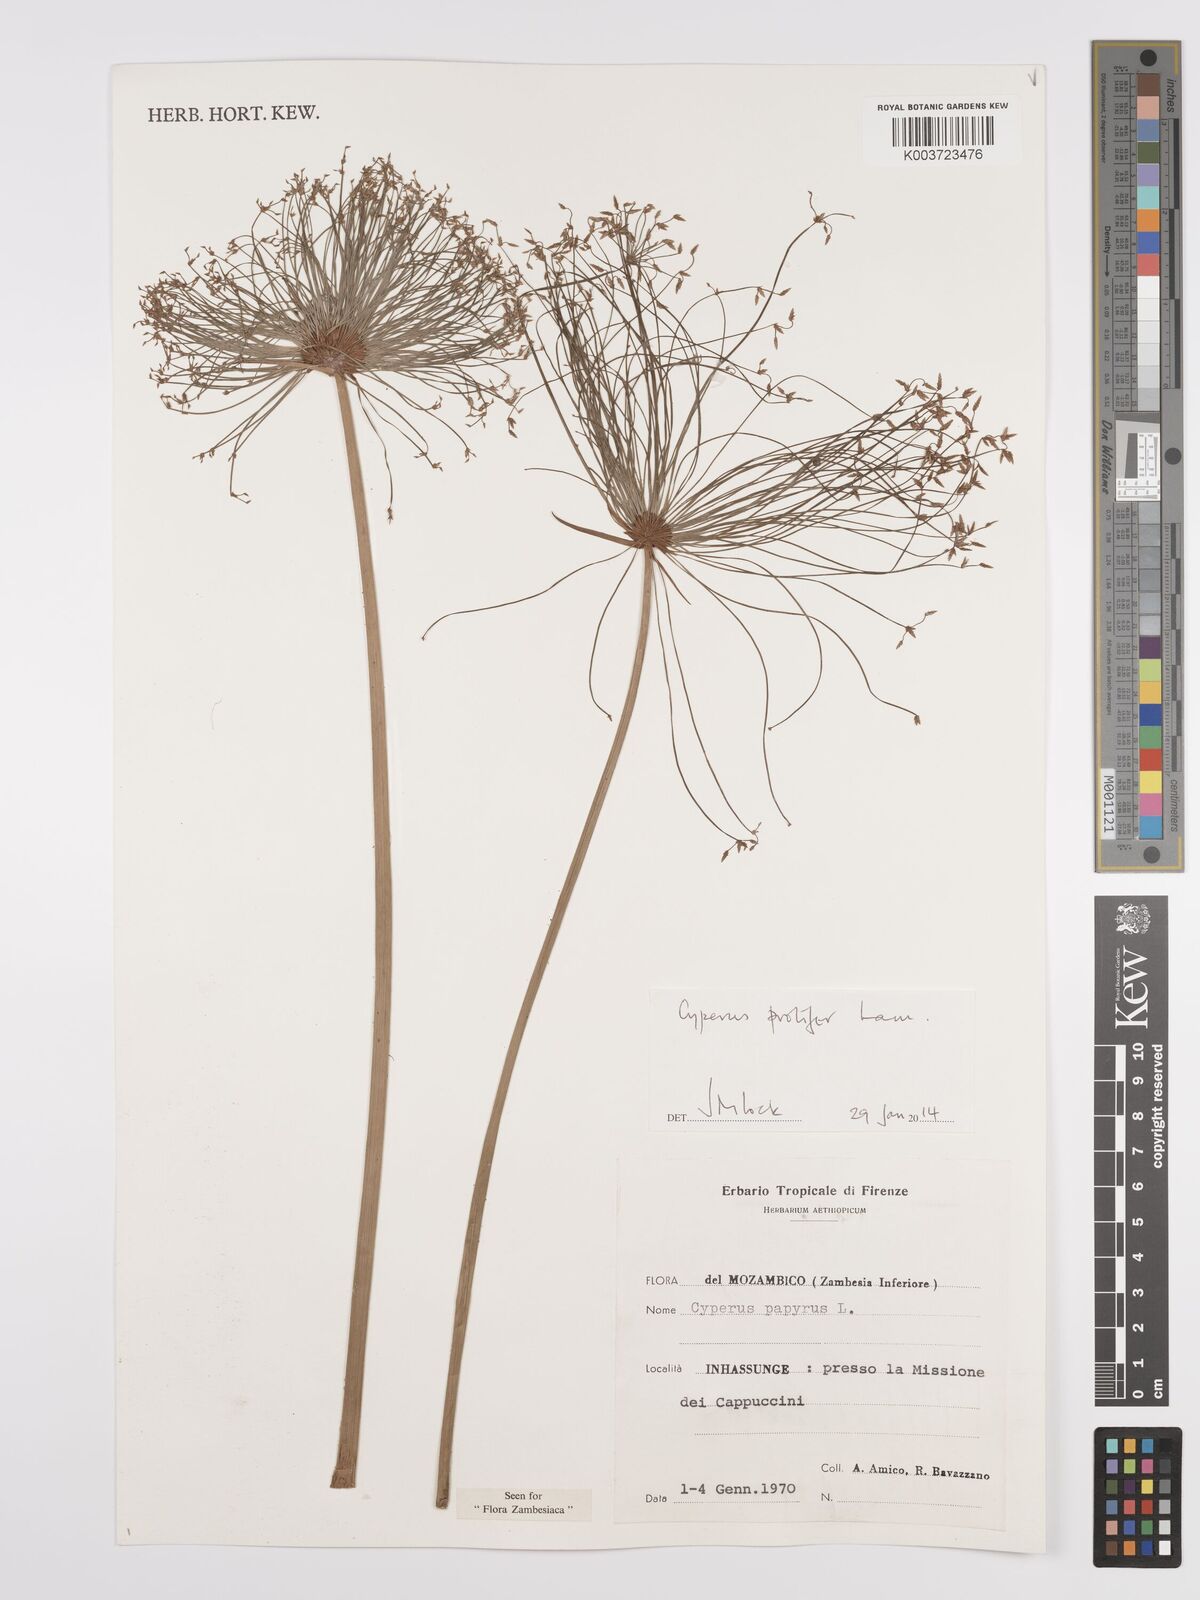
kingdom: Plantae
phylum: Tracheophyta
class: Liliopsida
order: Poales
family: Cyperaceae
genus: Cyperus
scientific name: Cyperus prolifer
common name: Miniature flatsedge
